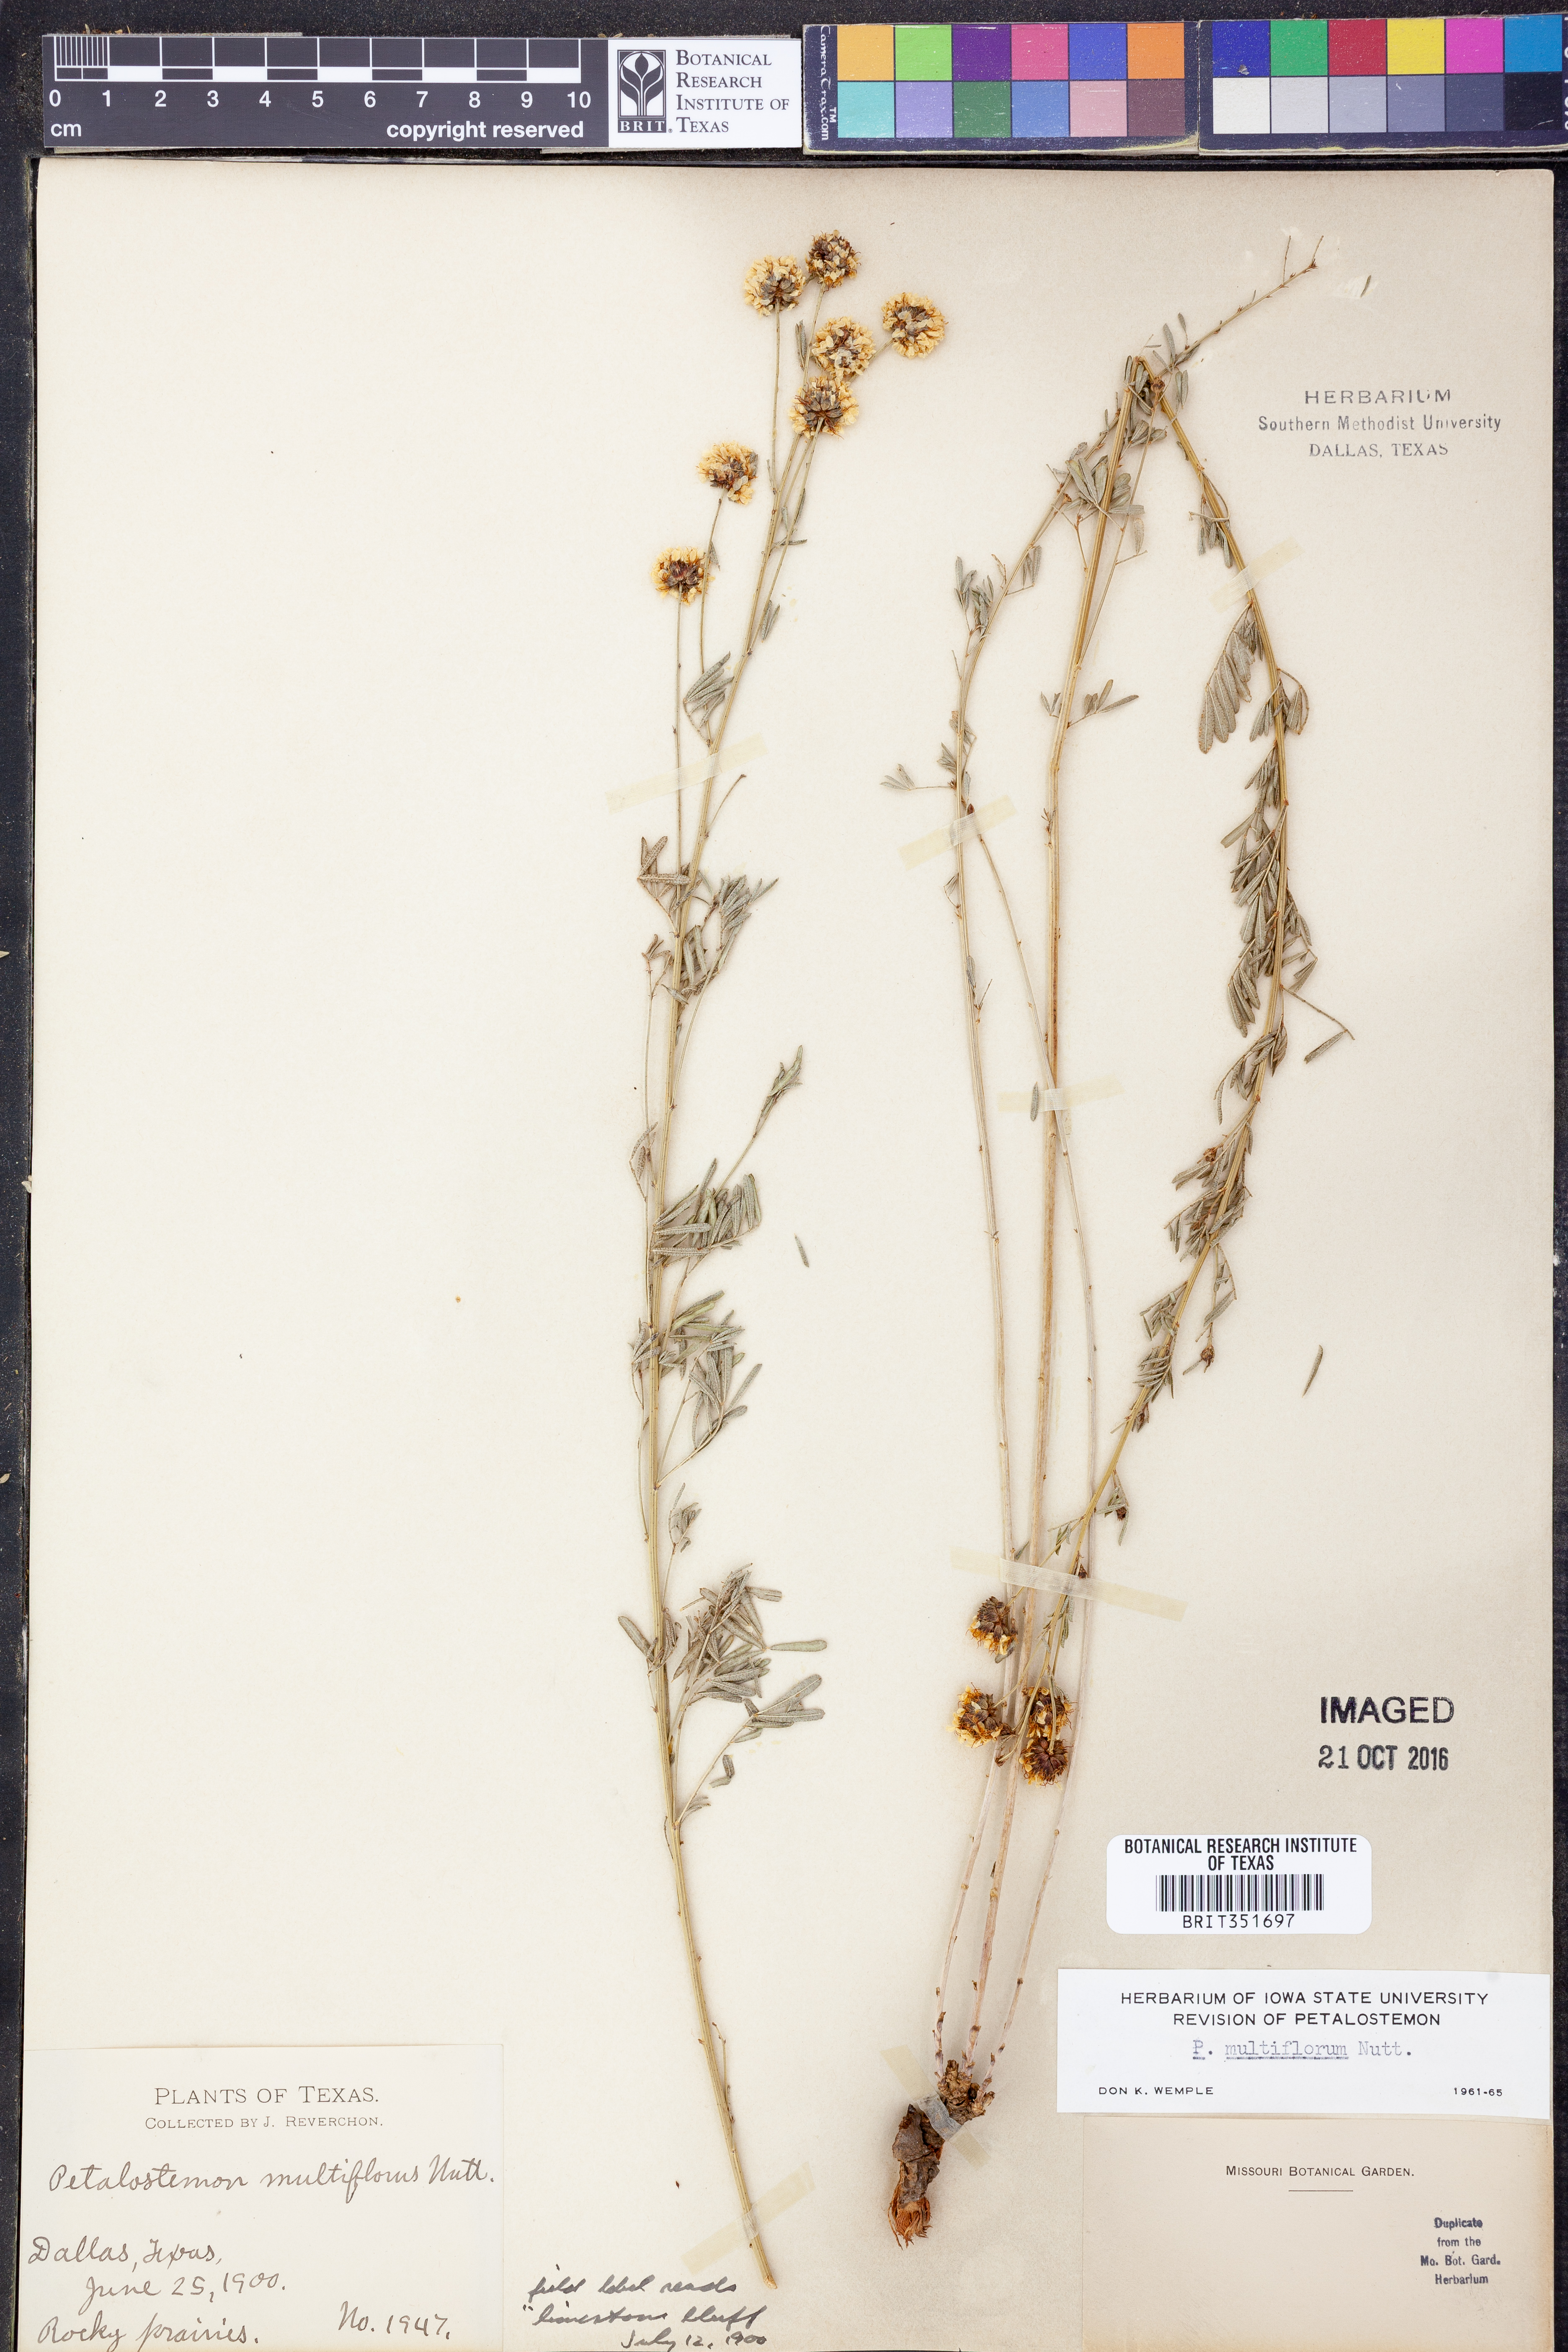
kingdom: Plantae
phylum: Tracheophyta
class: Magnoliopsida
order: Fabales
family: Fabaceae
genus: Dalea
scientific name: Dalea multiflora
